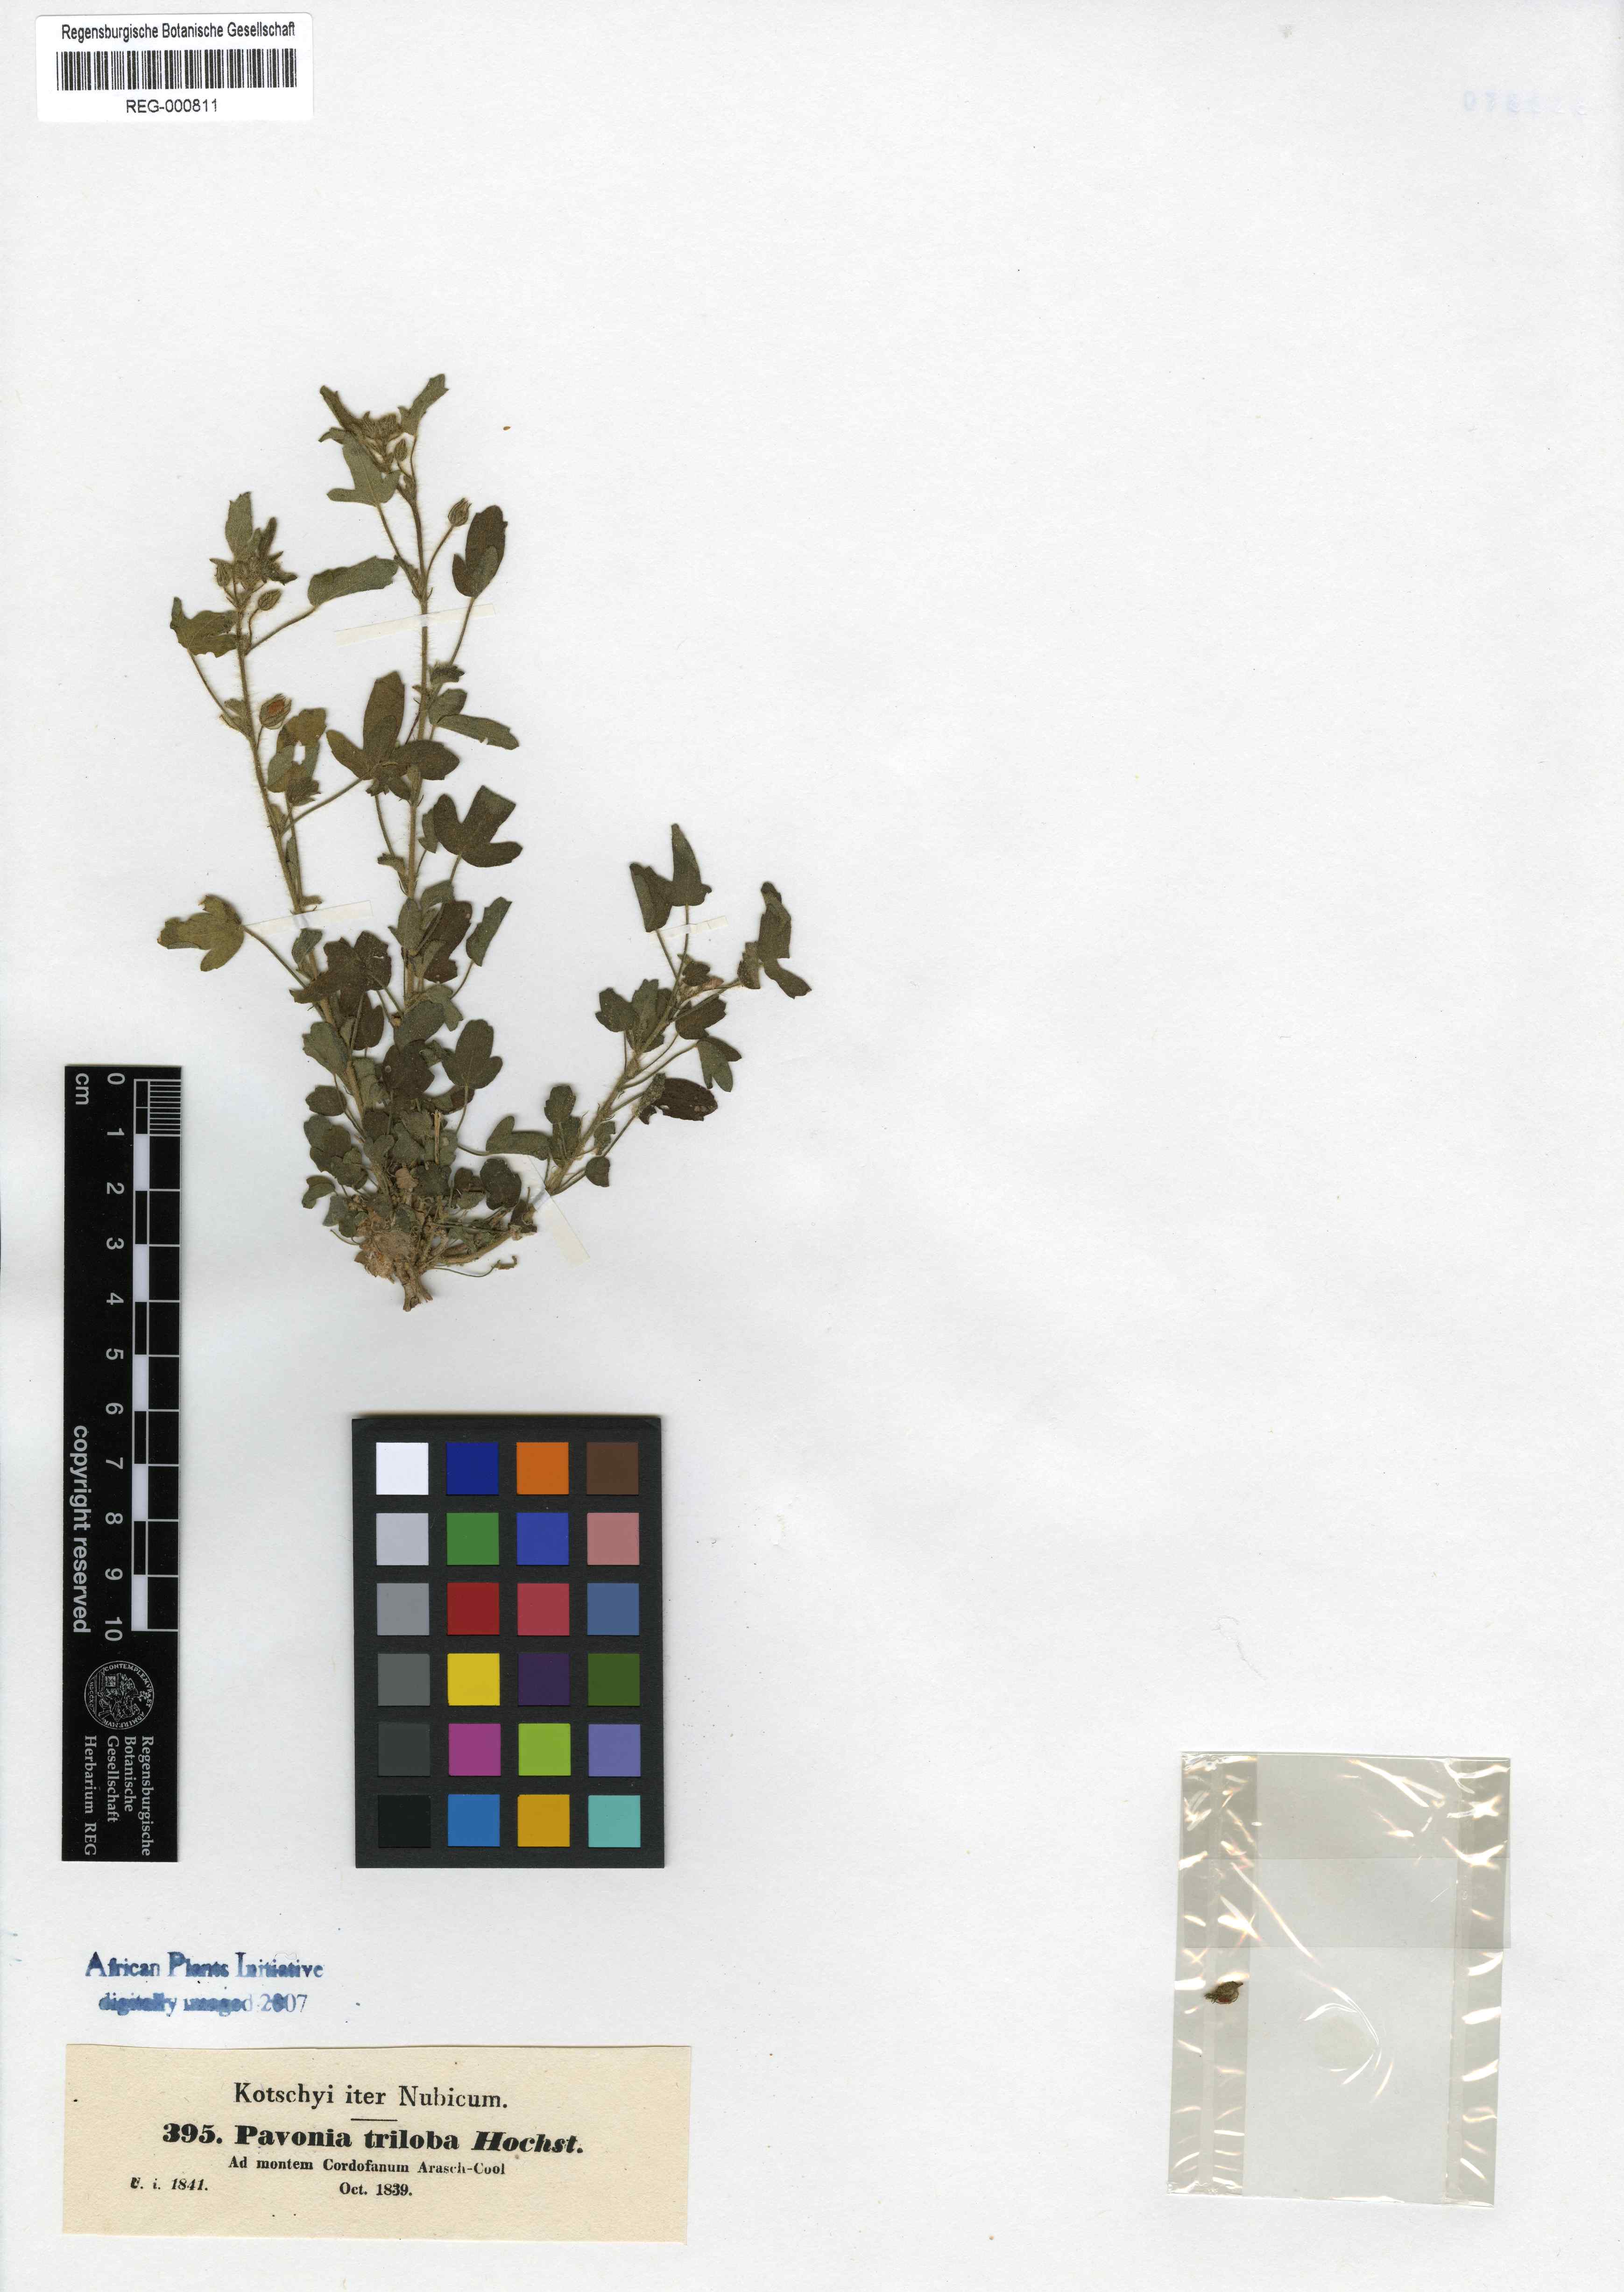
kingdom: Plantae
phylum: Tracheophyta
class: Magnoliopsida
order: Malvales
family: Malvaceae
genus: Pavonia
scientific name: Pavonia triloba
